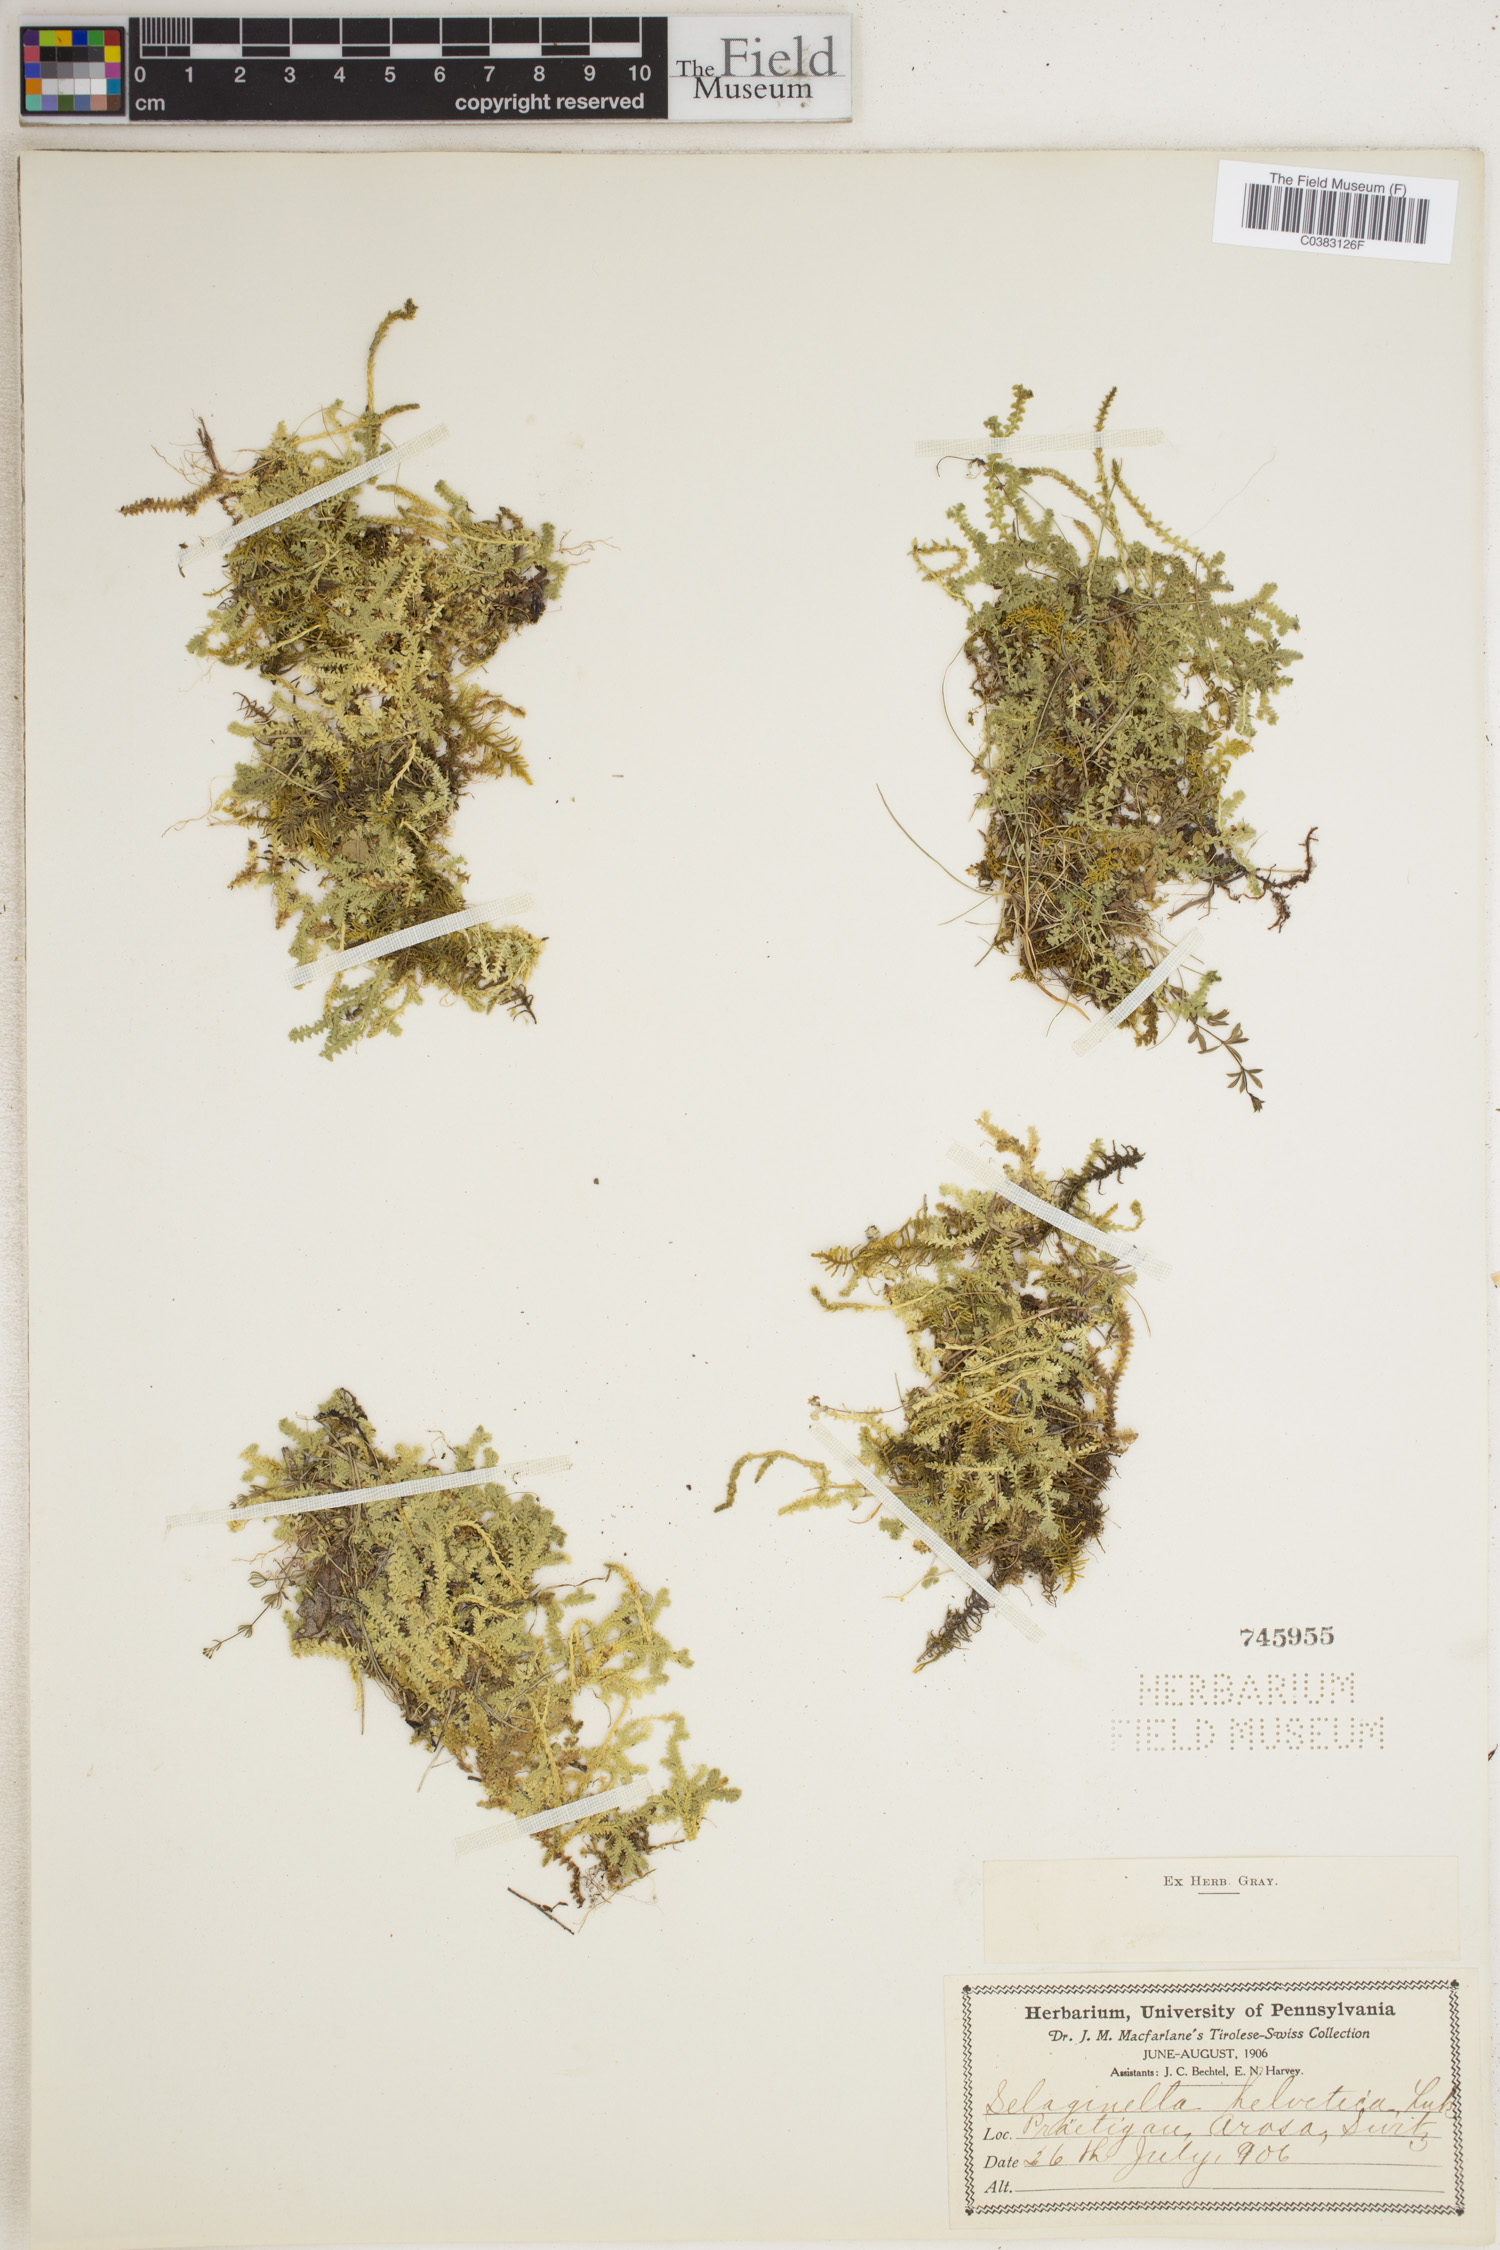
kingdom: Plantae
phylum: Tracheophyta
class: Lycopodiopsida
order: Selaginellales
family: Selaginellaceae
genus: Selaginella
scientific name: Selaginella helvetica
